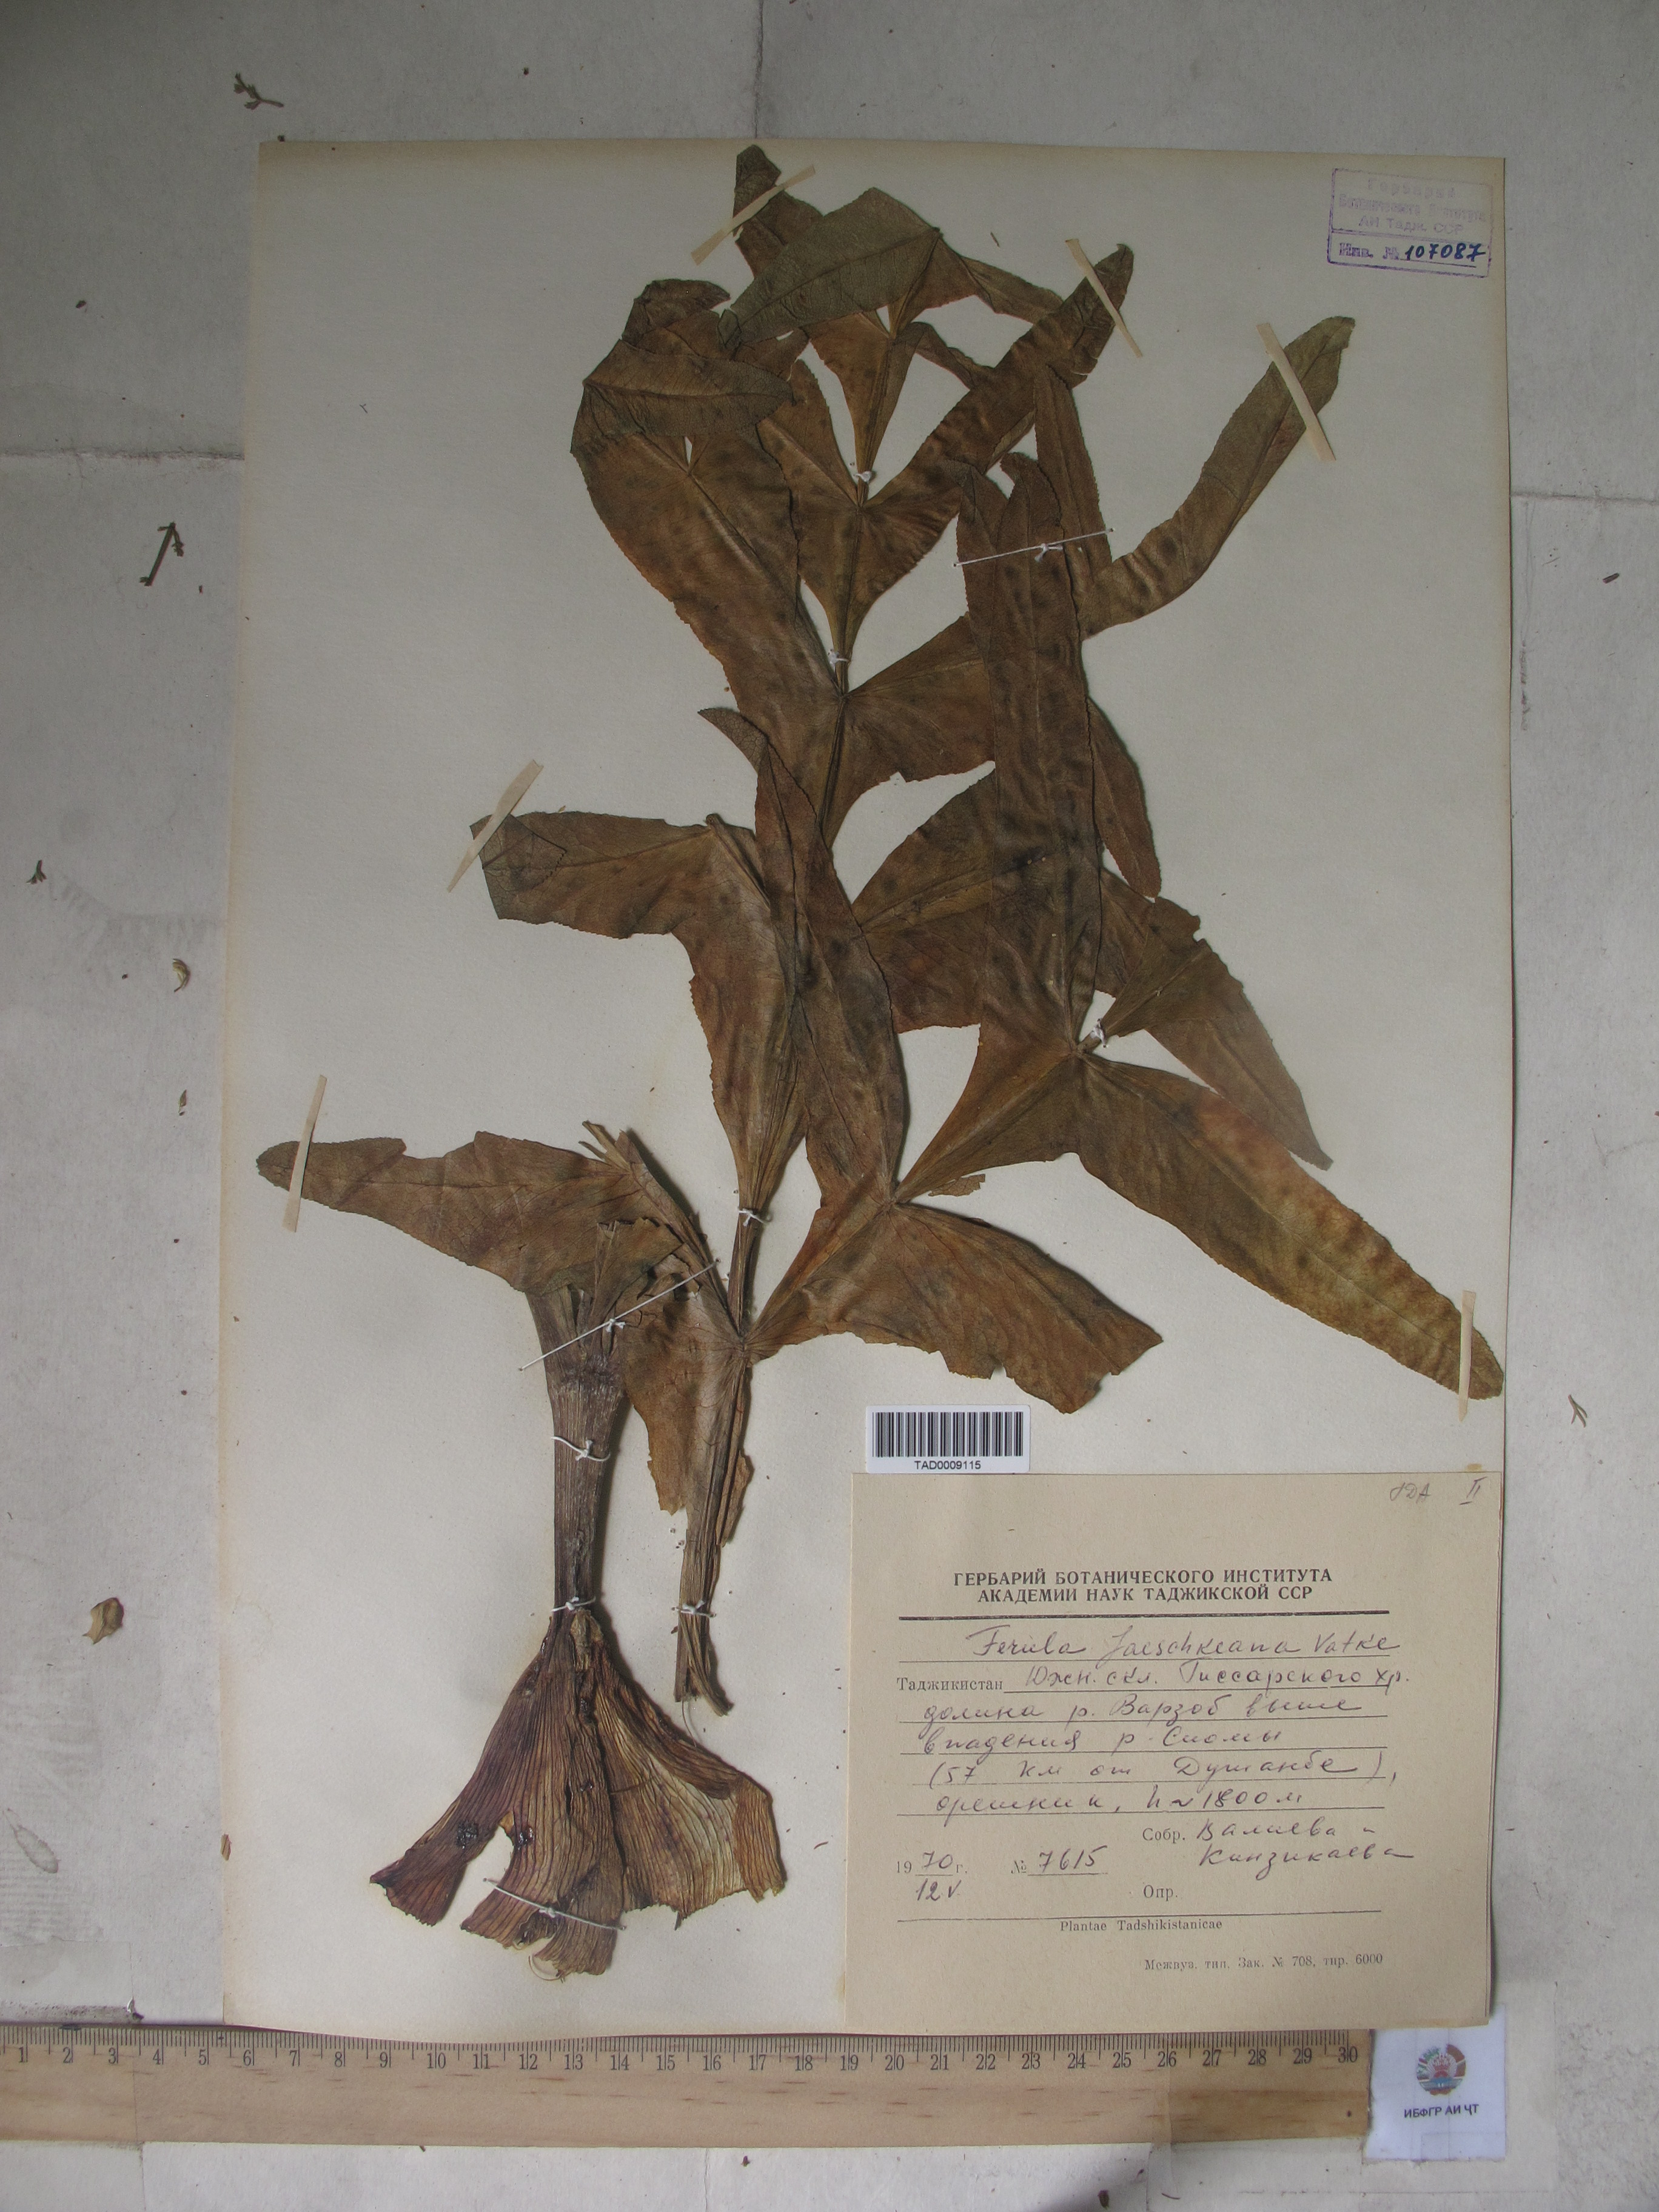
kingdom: Plantae
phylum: Tracheophyta
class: Magnoliopsida
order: Apiales
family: Apiaceae
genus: Ferula
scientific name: Ferula jaeschkeana
